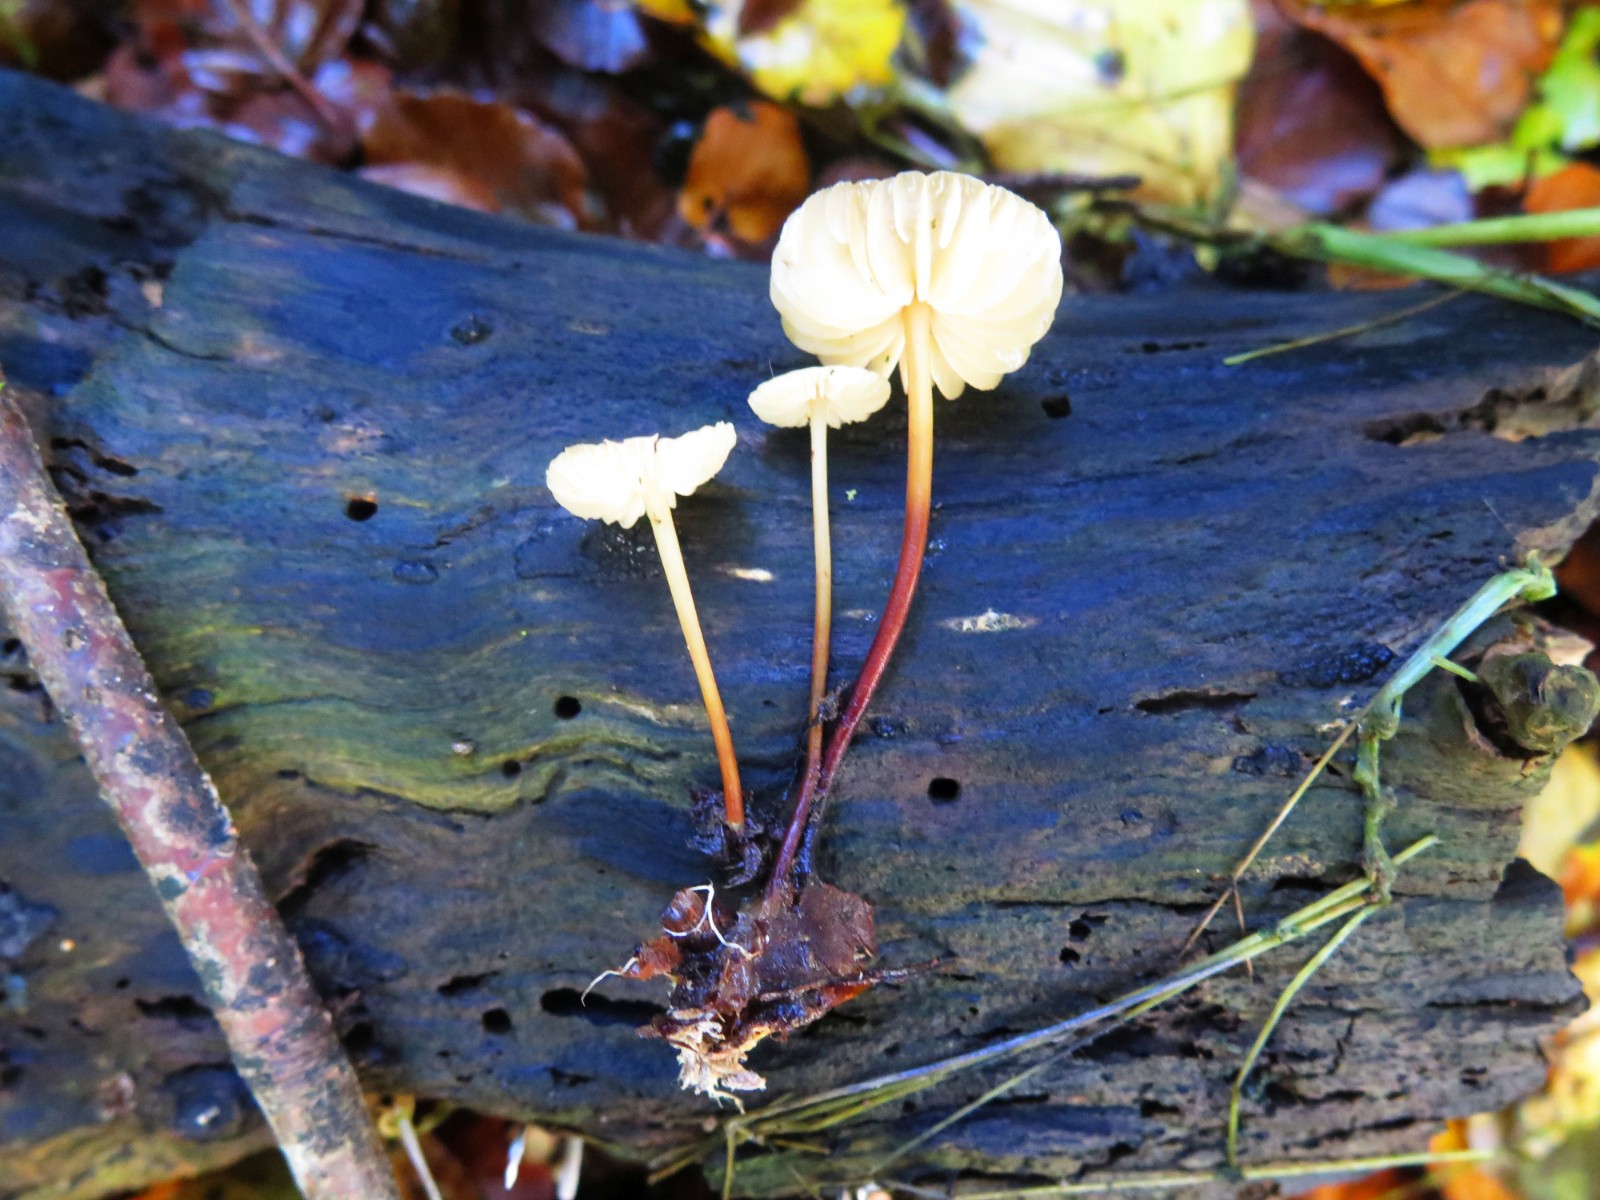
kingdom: Fungi
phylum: Basidiomycota
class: Agaricomycetes
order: Agaricales
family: Marasmiaceae
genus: Marasmius
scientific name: Marasmius torquescens
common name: filtfodet bruskhat
